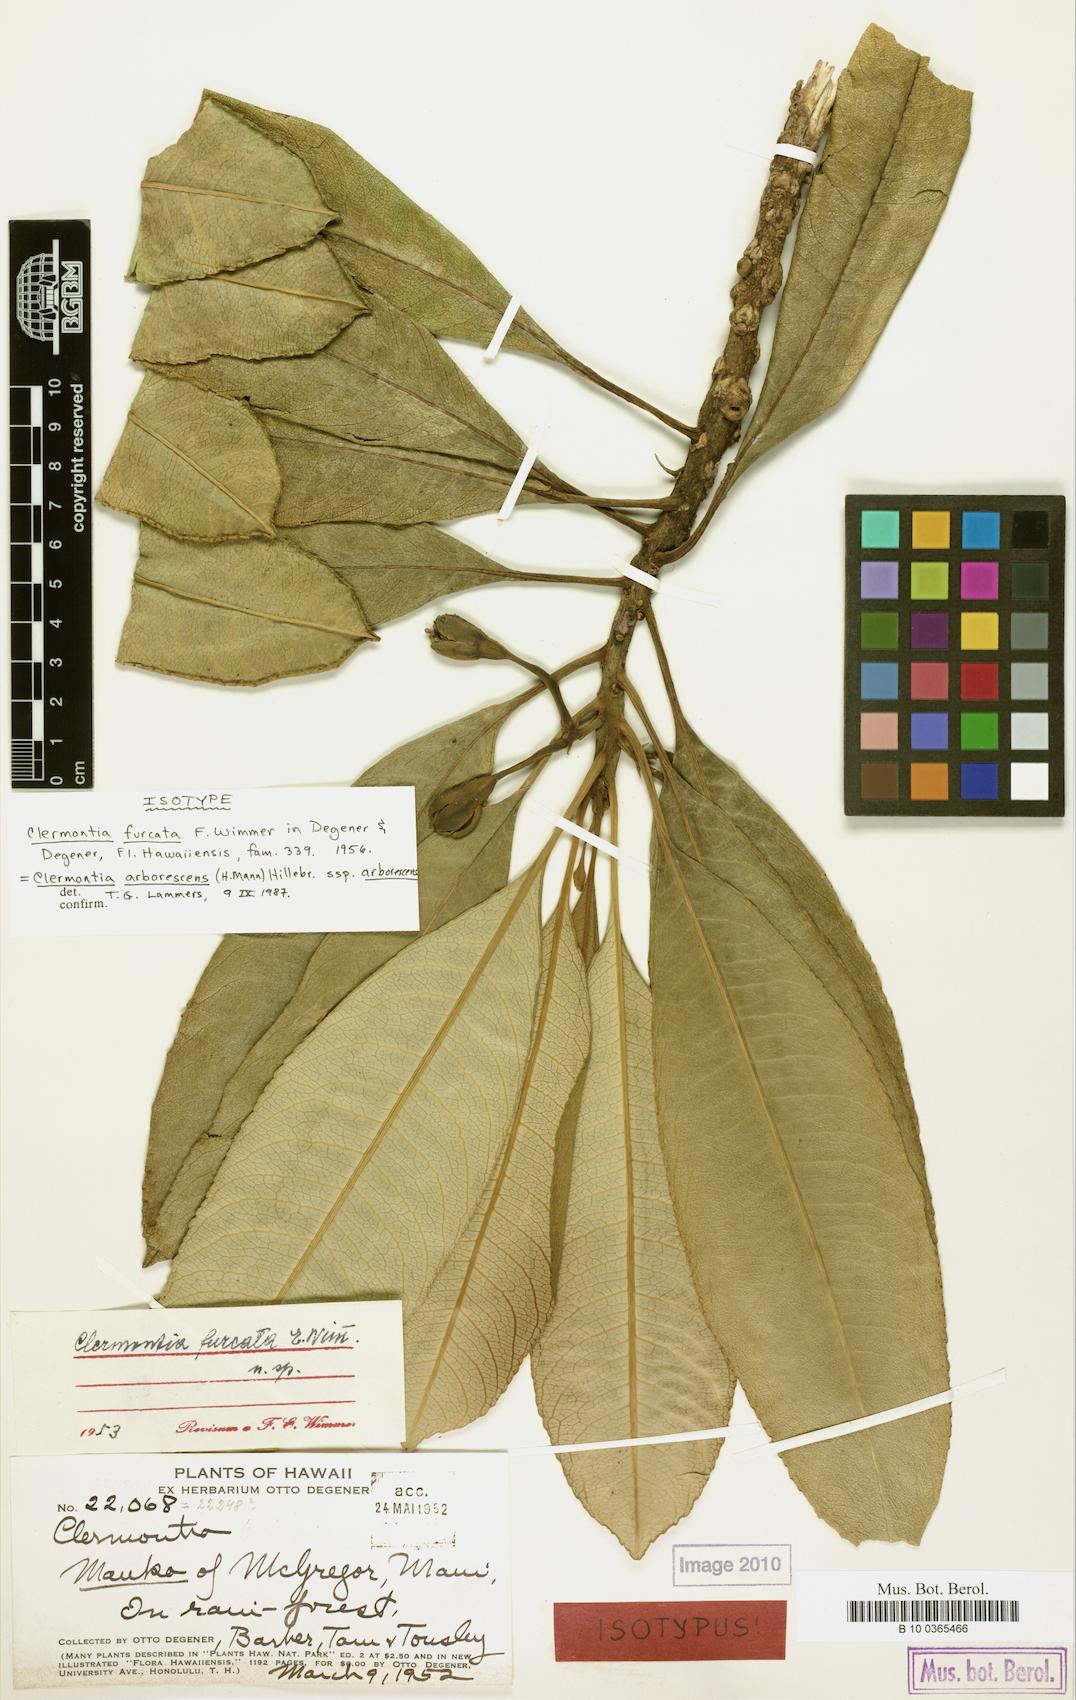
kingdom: Plantae
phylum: Tracheophyta
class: Magnoliopsida
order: Asterales
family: Campanulaceae
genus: Clermontia
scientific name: Clermontia arborescens
